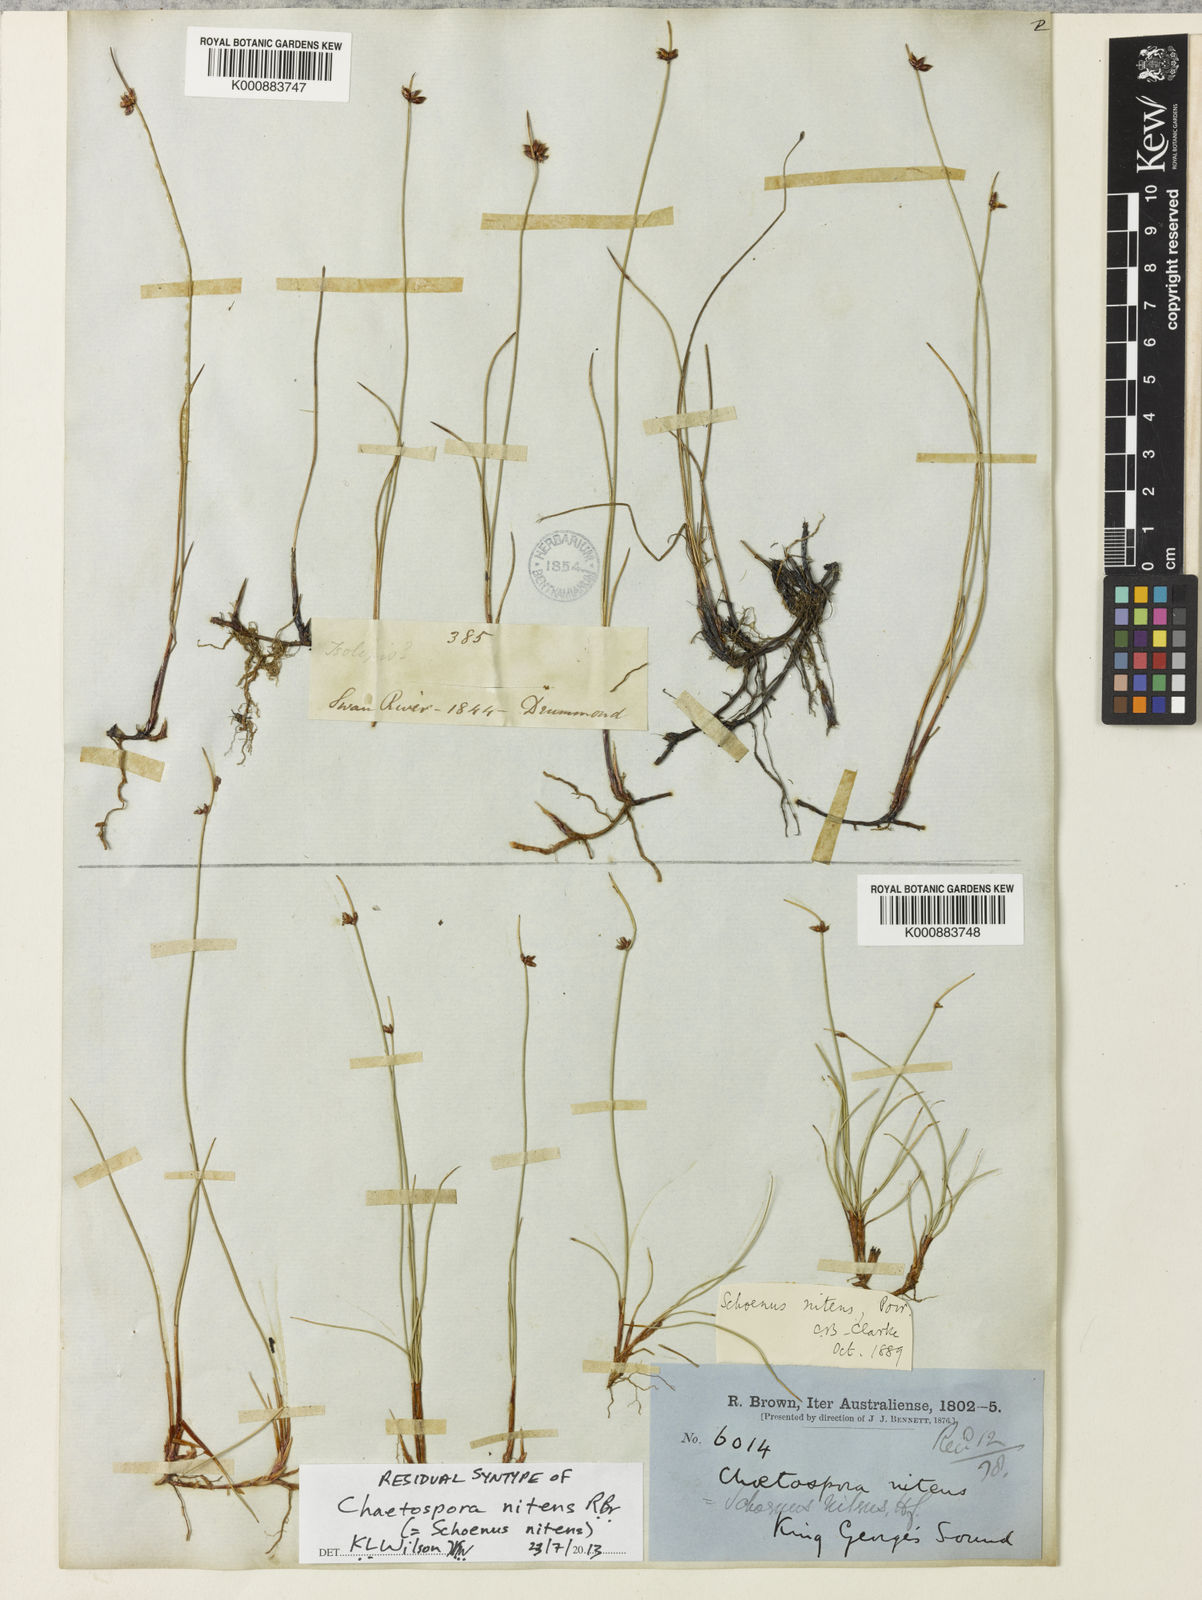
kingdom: Plantae
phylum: Tracheophyta
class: Liliopsida
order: Poales
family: Cyperaceae
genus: Schoenus
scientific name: Schoenus
